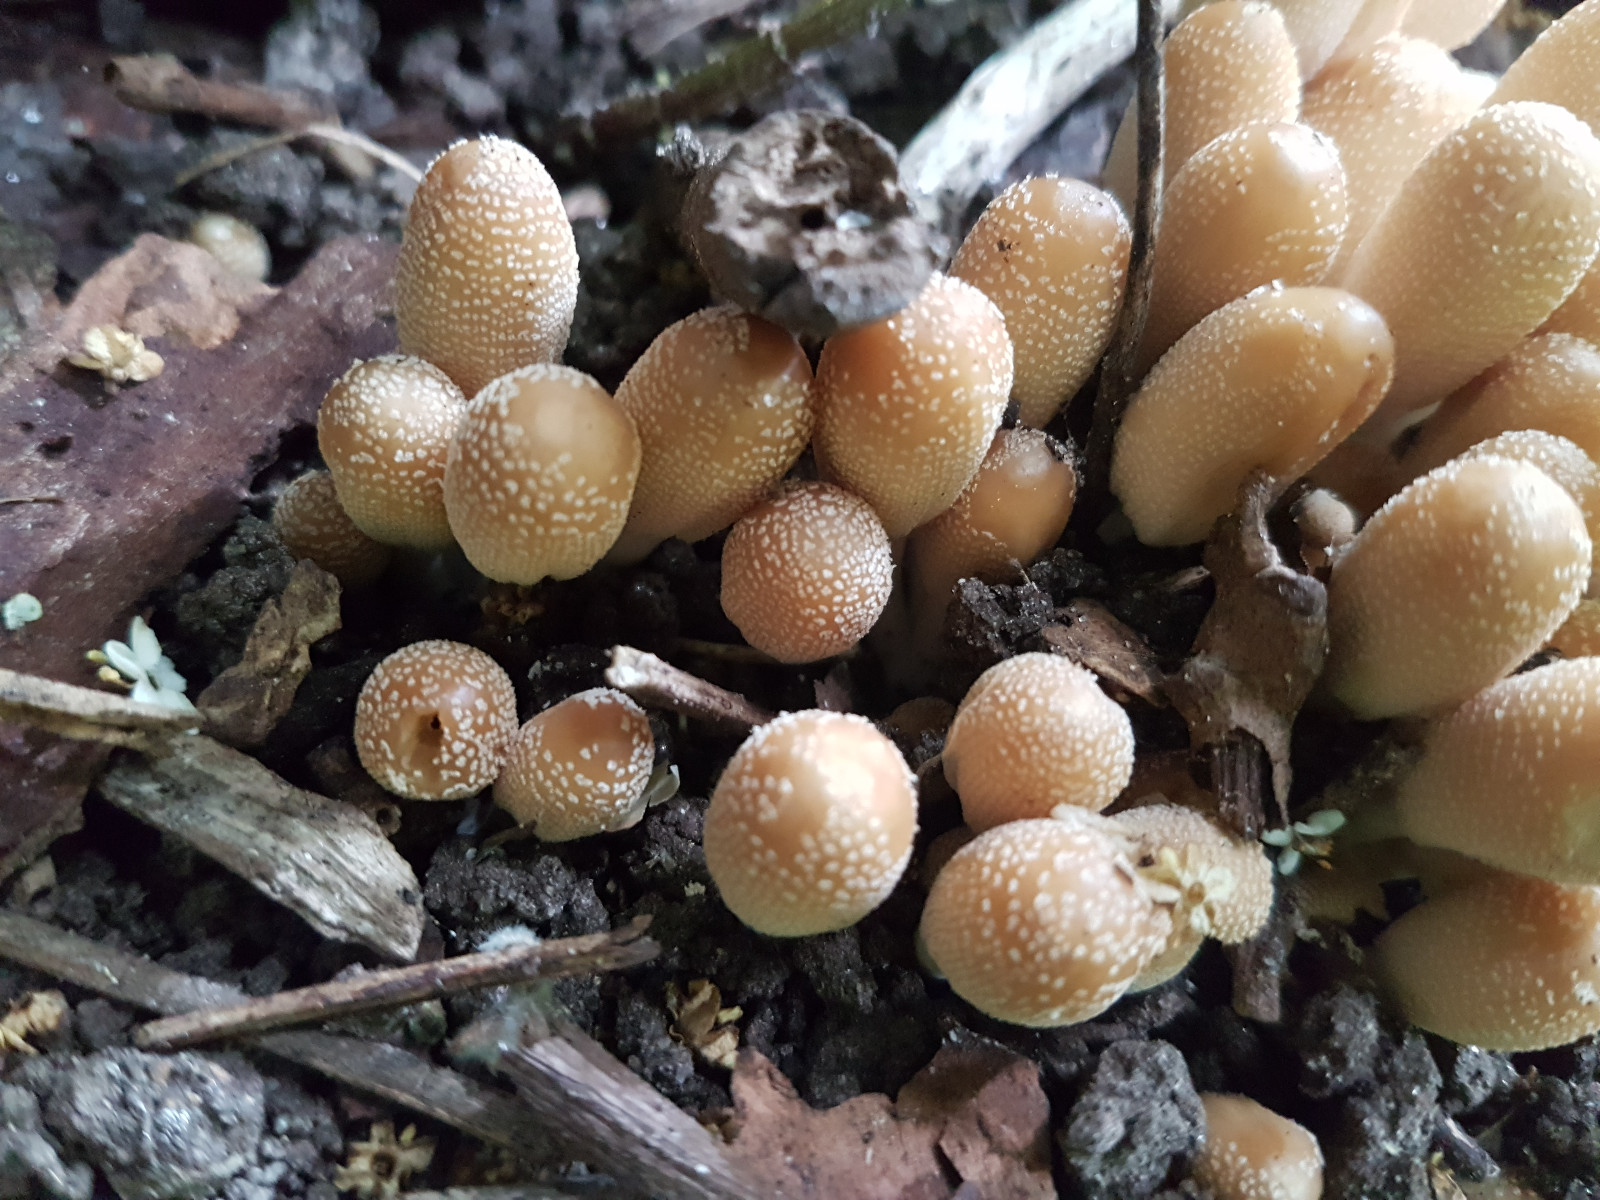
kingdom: Fungi
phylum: Basidiomycota
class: Agaricomycetes
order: Agaricales
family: Psathyrellaceae
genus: Coprinellus
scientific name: Coprinellus micaceus
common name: glimmer-blækhat
